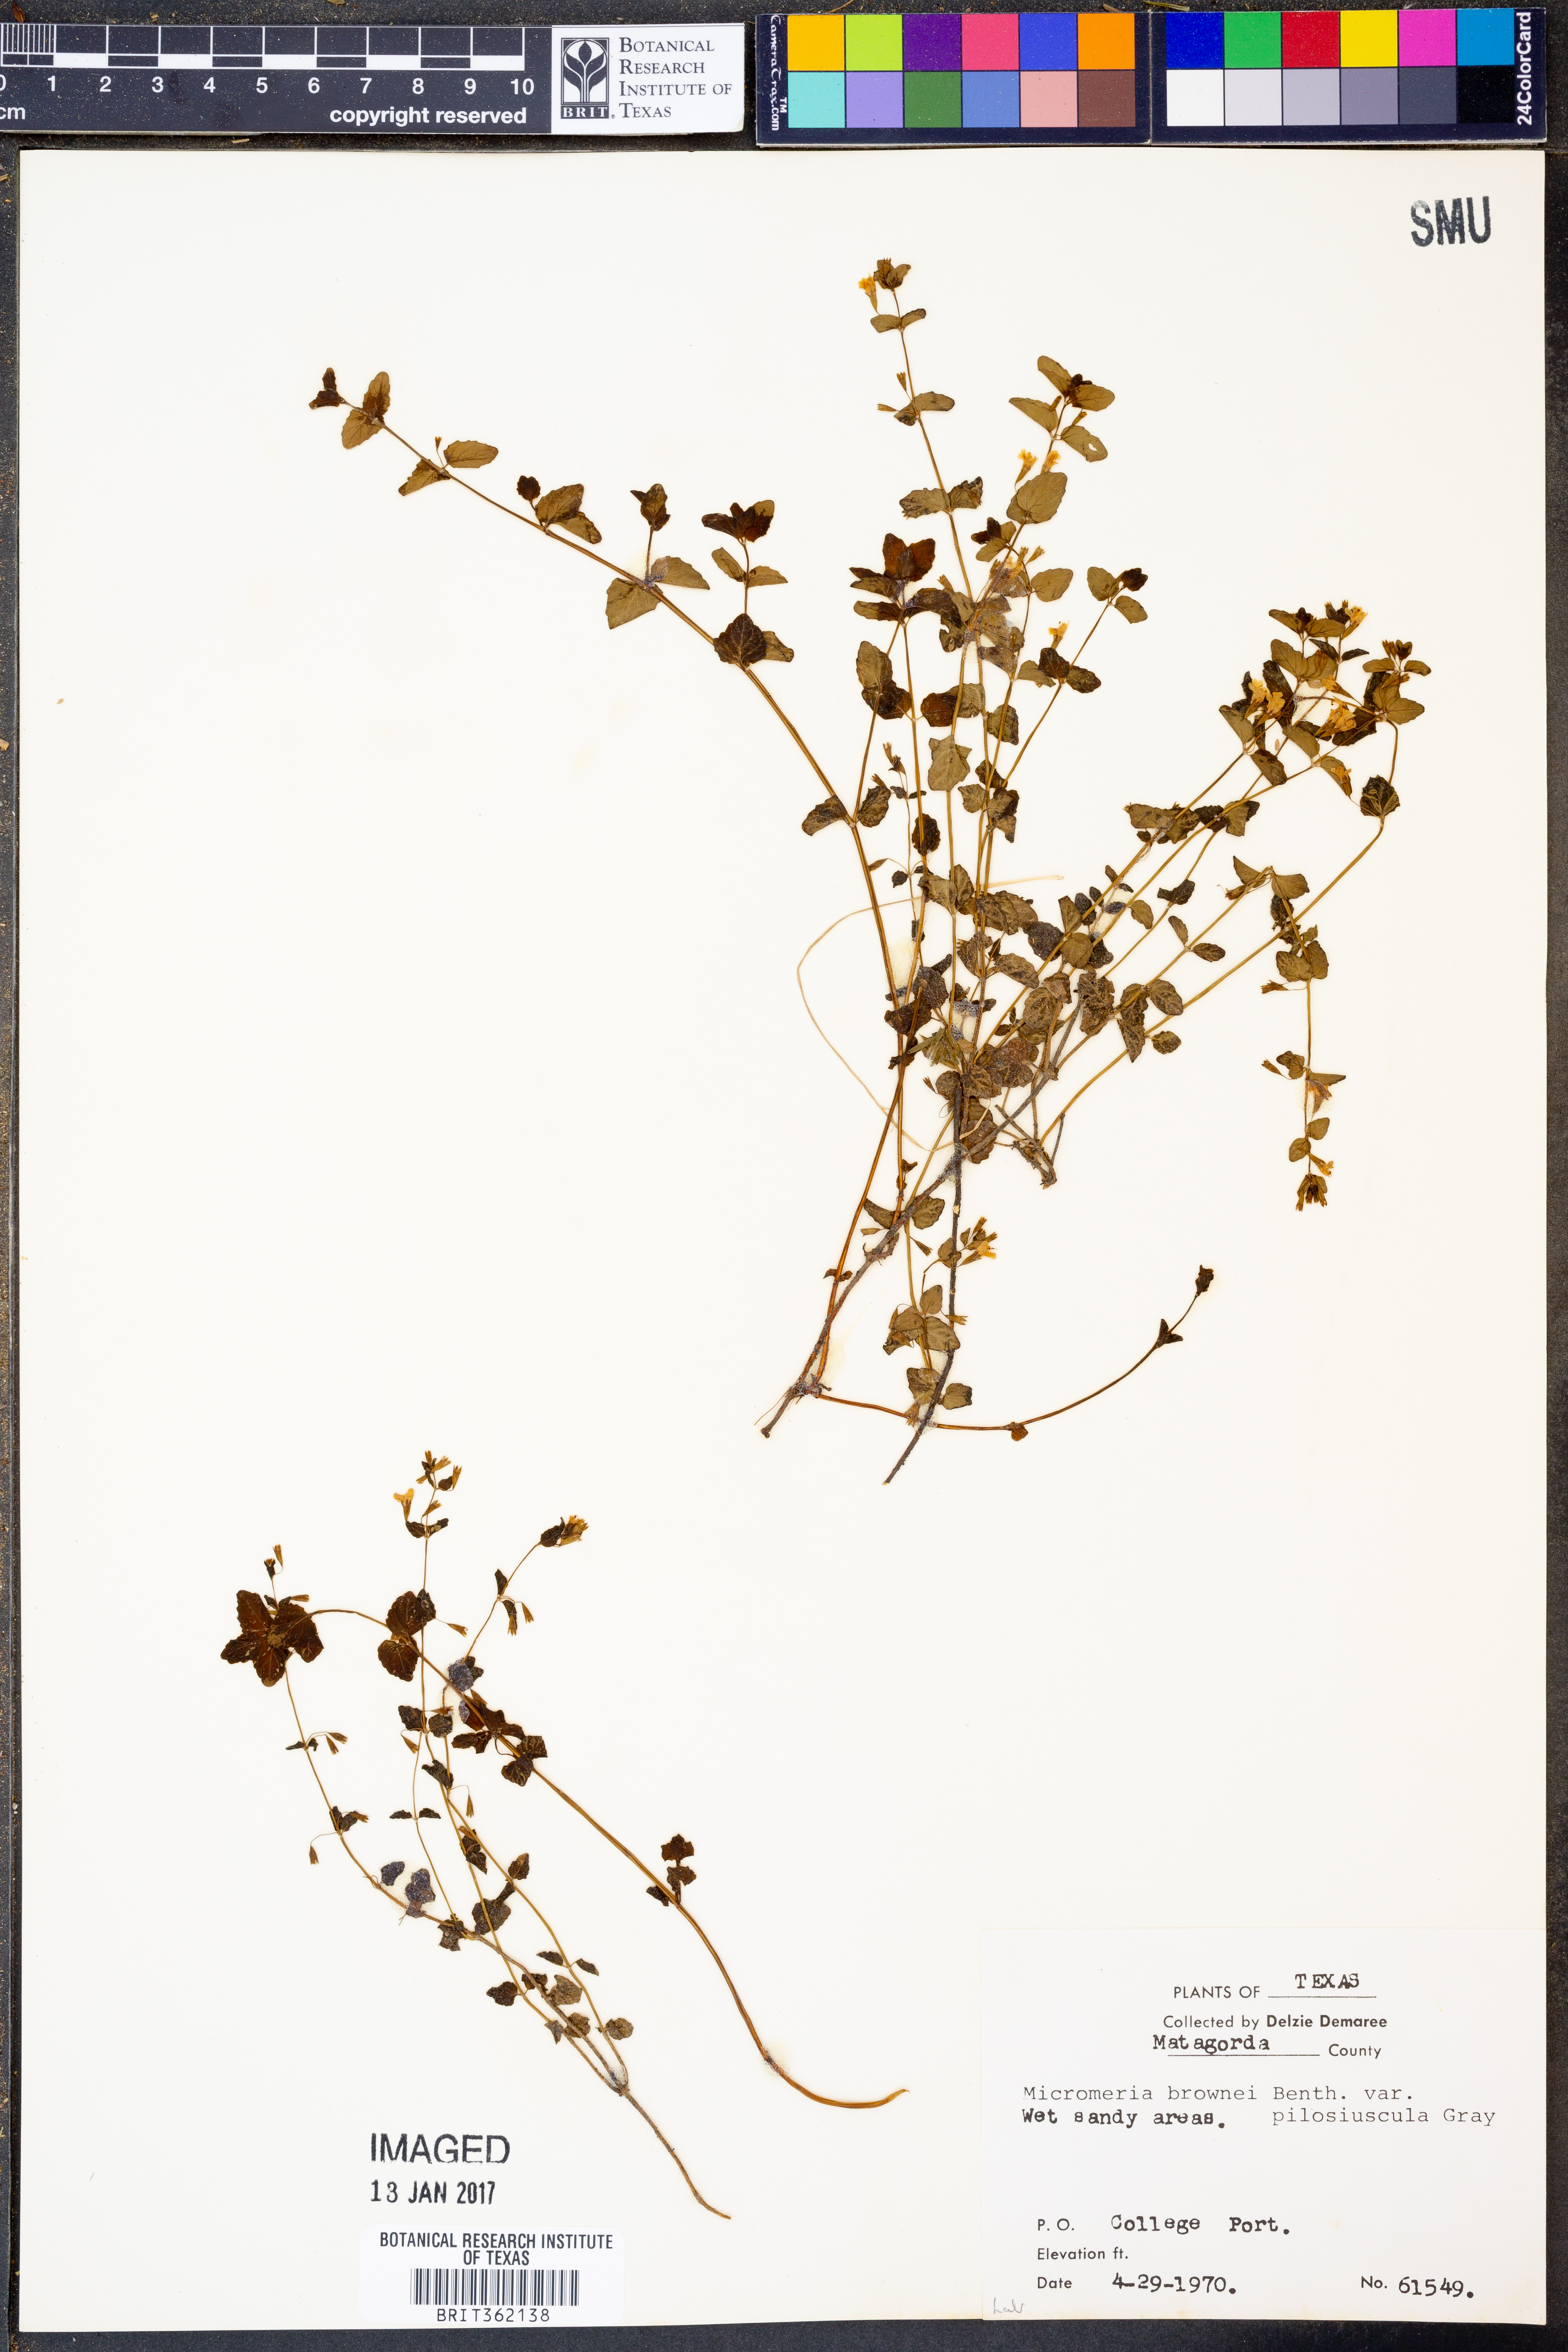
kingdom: Plantae
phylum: Tracheophyta
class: Magnoliopsida
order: Lamiales
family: Lamiaceae
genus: Clinopodium
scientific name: Clinopodium brownei
